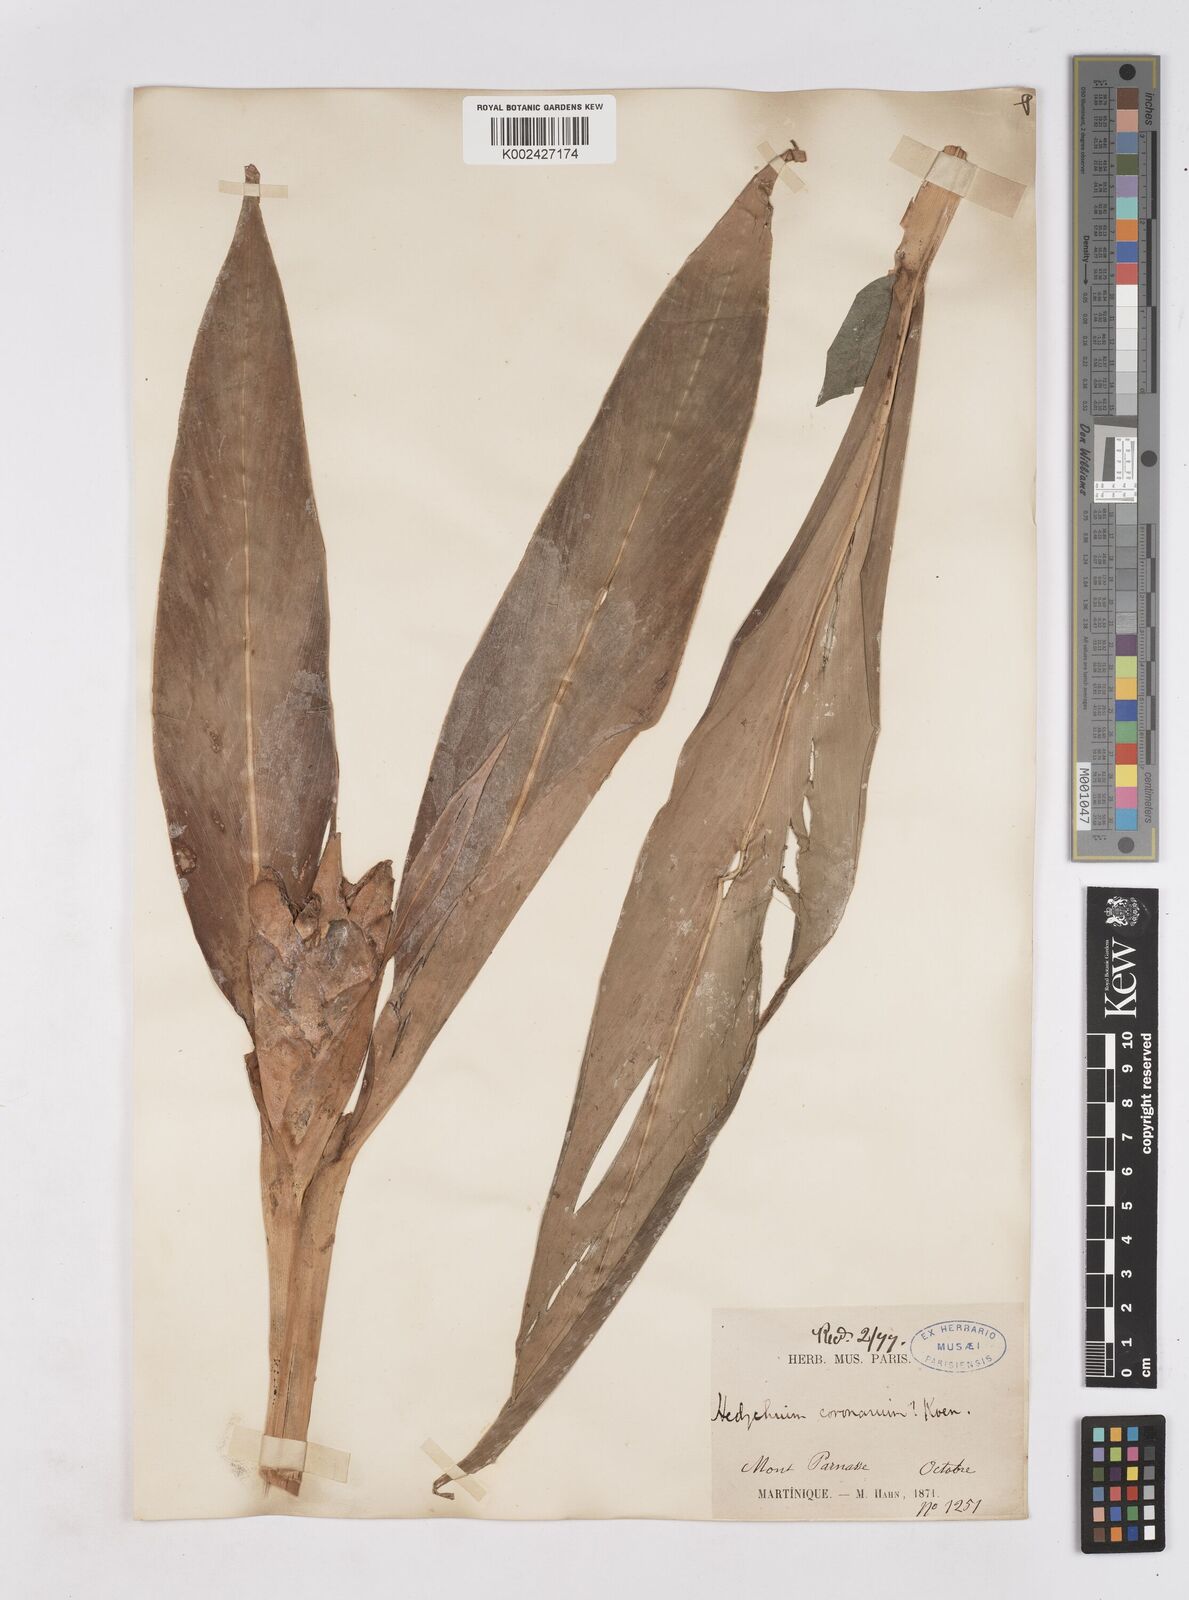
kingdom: Plantae
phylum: Tracheophyta
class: Liliopsida
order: Zingiberales
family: Zingiberaceae
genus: Hedychium
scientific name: Hedychium coronarium
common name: White garland-lily
